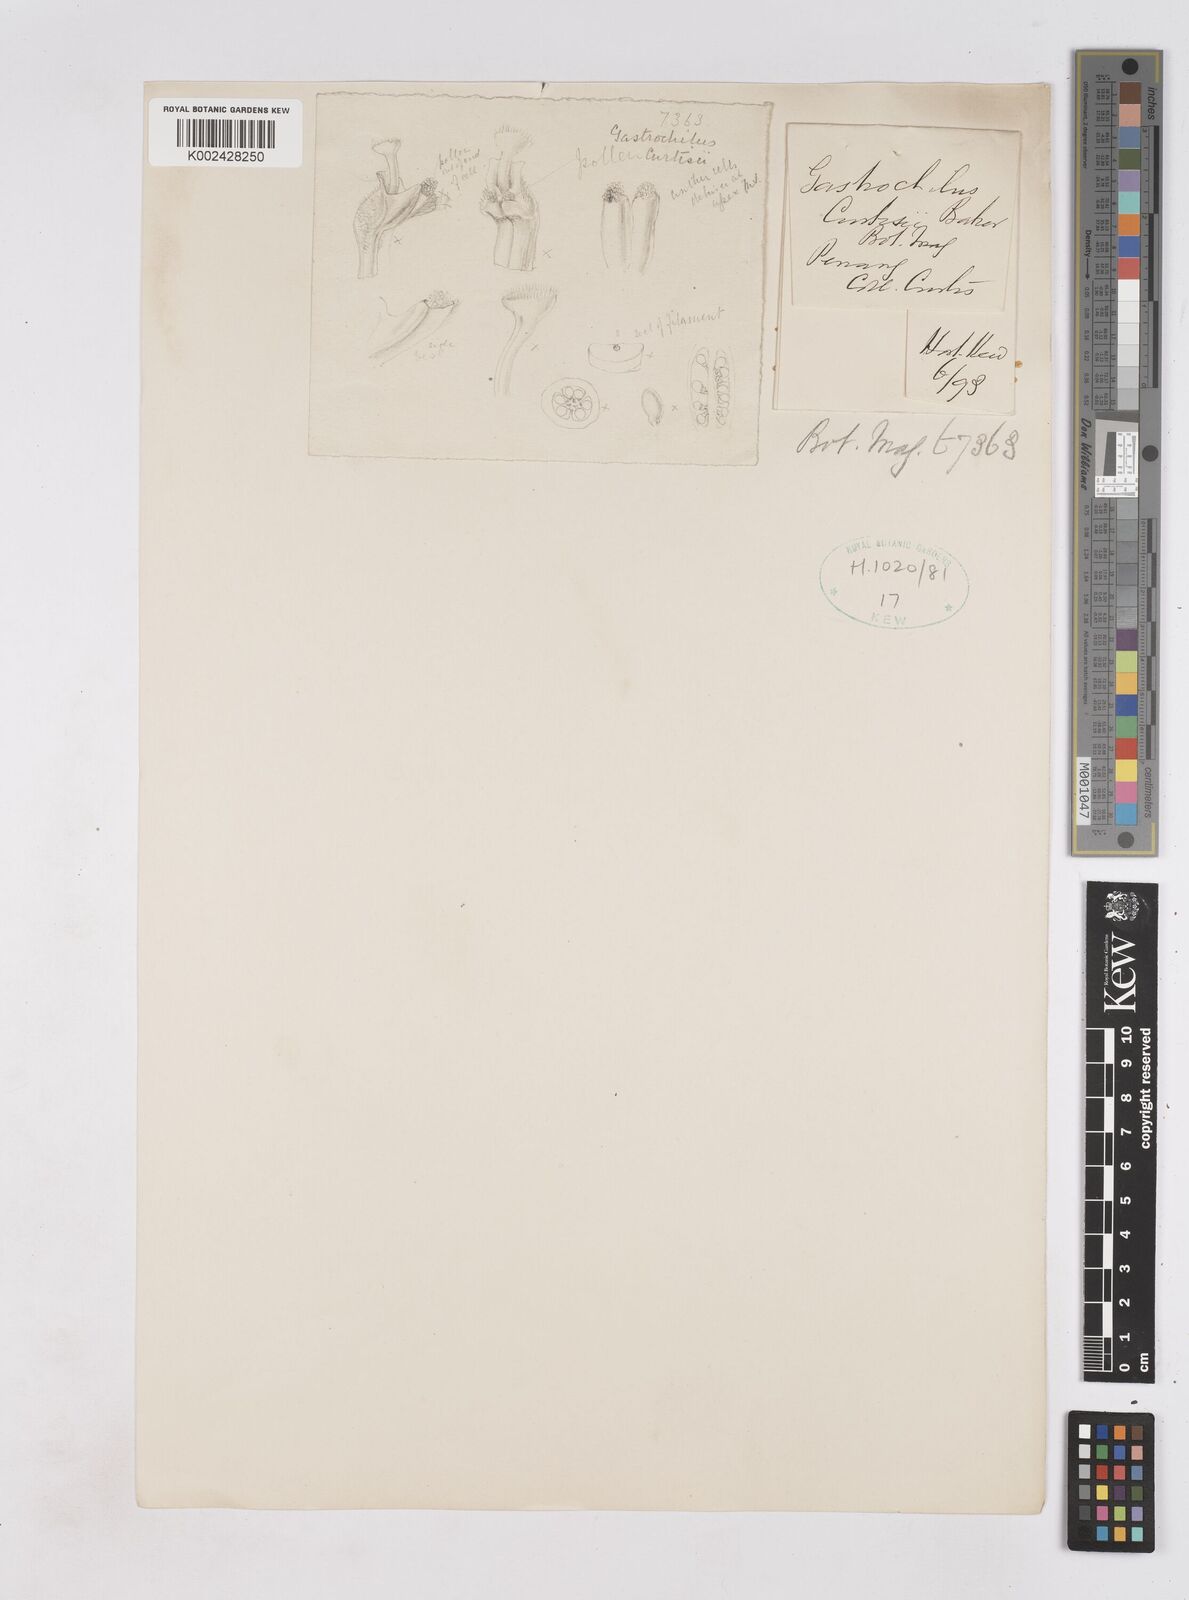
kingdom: Plantae
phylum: Tracheophyta
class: Liliopsida
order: Zingiberales
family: Zingiberaceae
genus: Boesenbergia
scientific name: Boesenbergia curtisii
